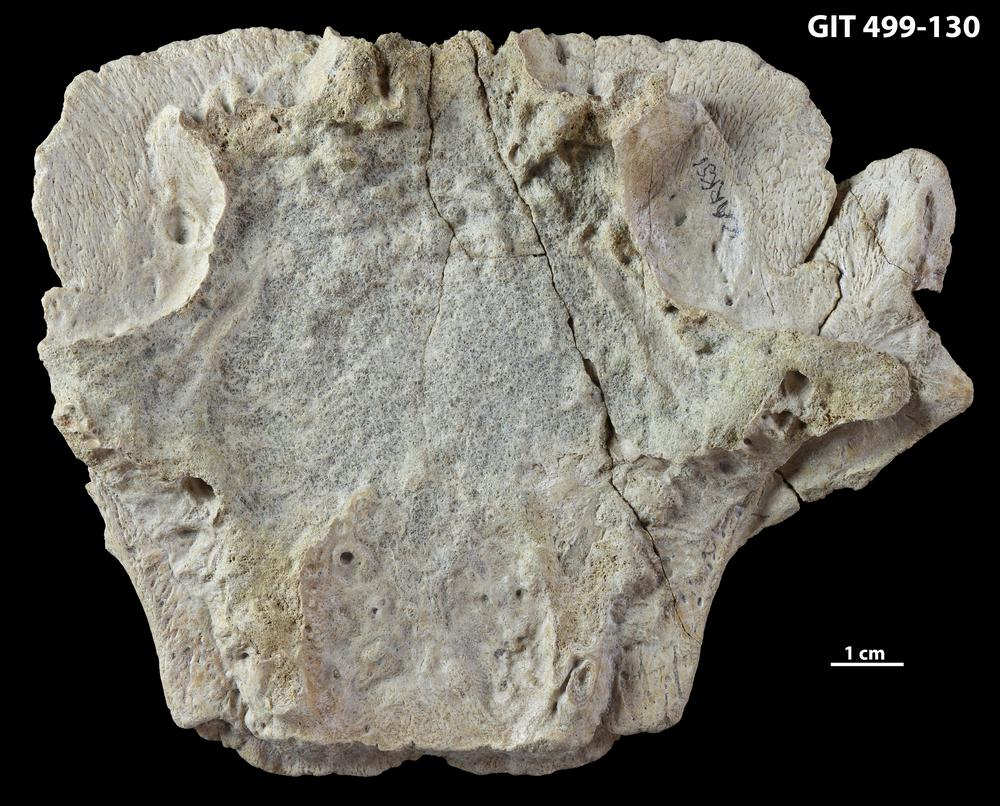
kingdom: Animalia
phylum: Chordata
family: Holoptychiidae
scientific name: Holoptychiidae
